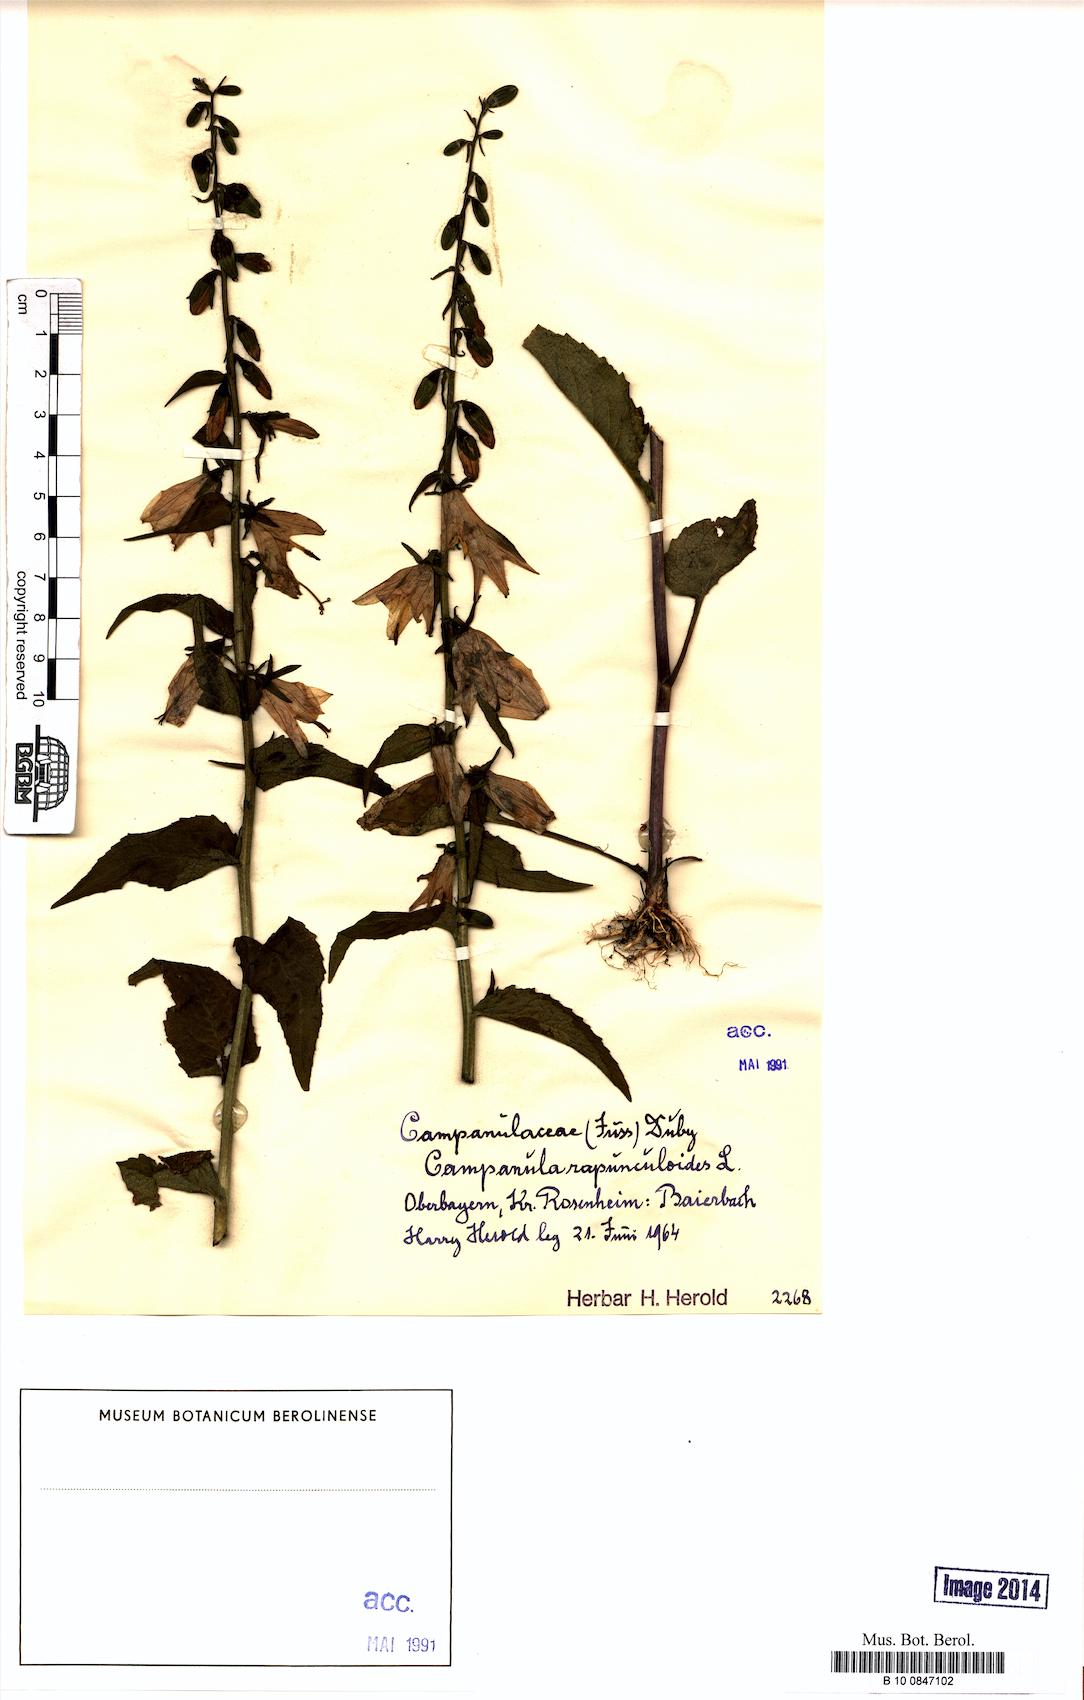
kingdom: Plantae
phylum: Tracheophyta
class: Magnoliopsida
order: Asterales
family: Campanulaceae
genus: Campanula
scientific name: Campanula rapunculoides
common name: Creeping bellflower
